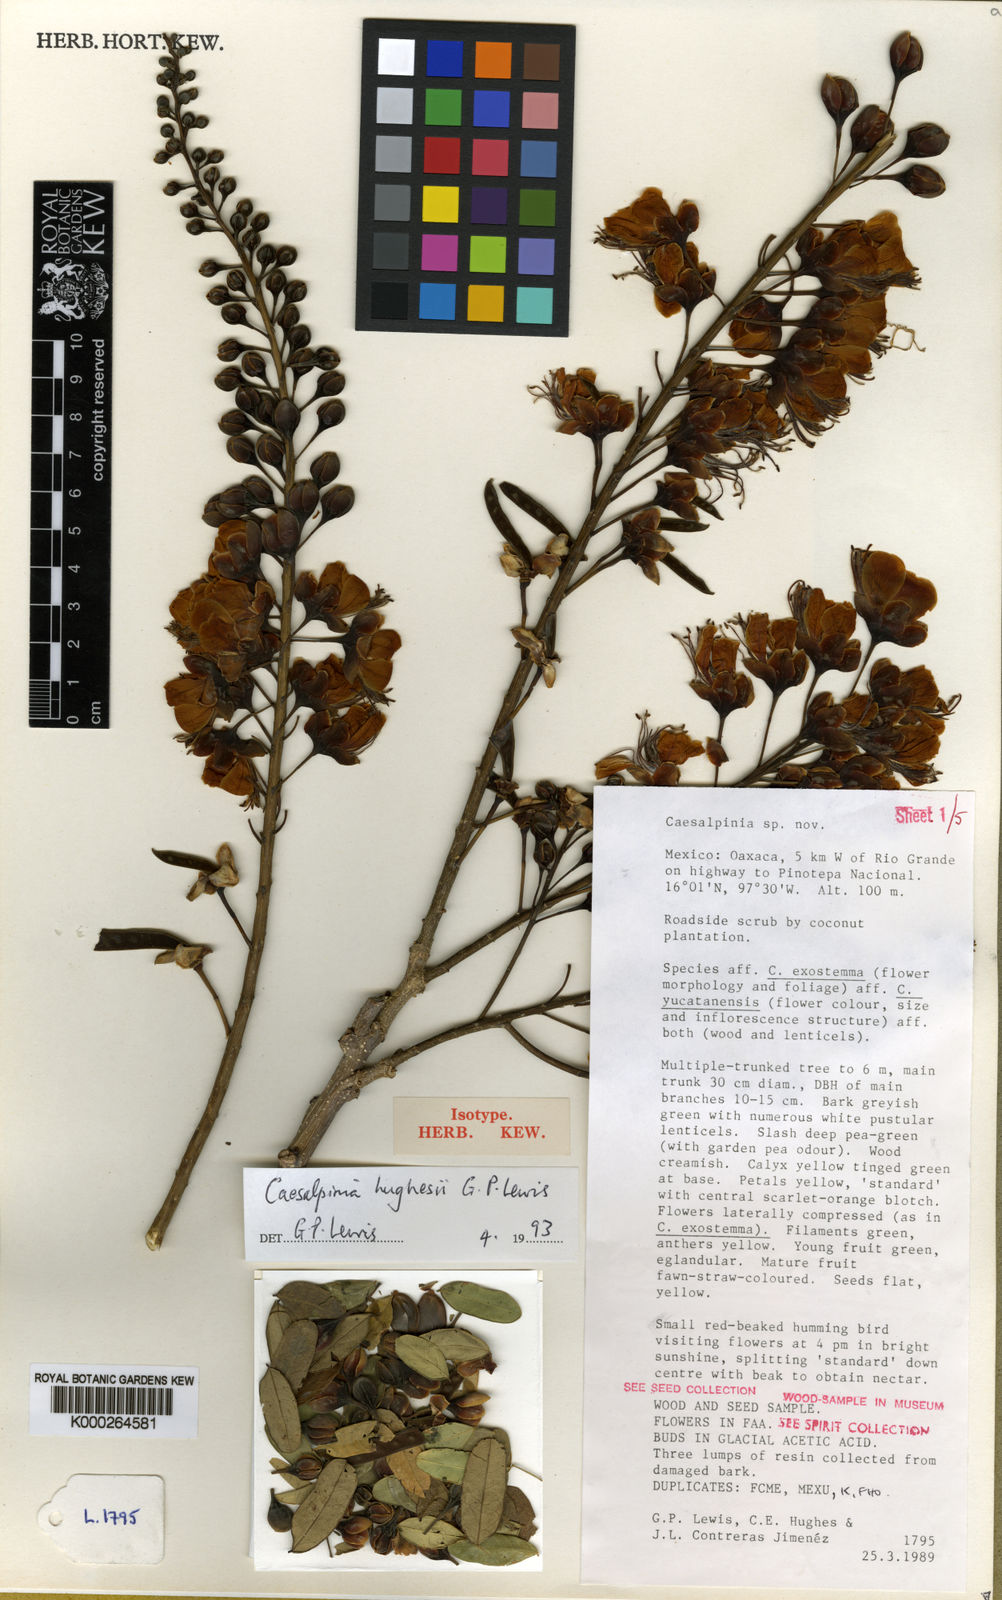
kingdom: Plantae
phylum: Tracheophyta
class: Magnoliopsida
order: Fabales
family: Fabaceae
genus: Erythrostemon
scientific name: Erythrostemon hughesii
